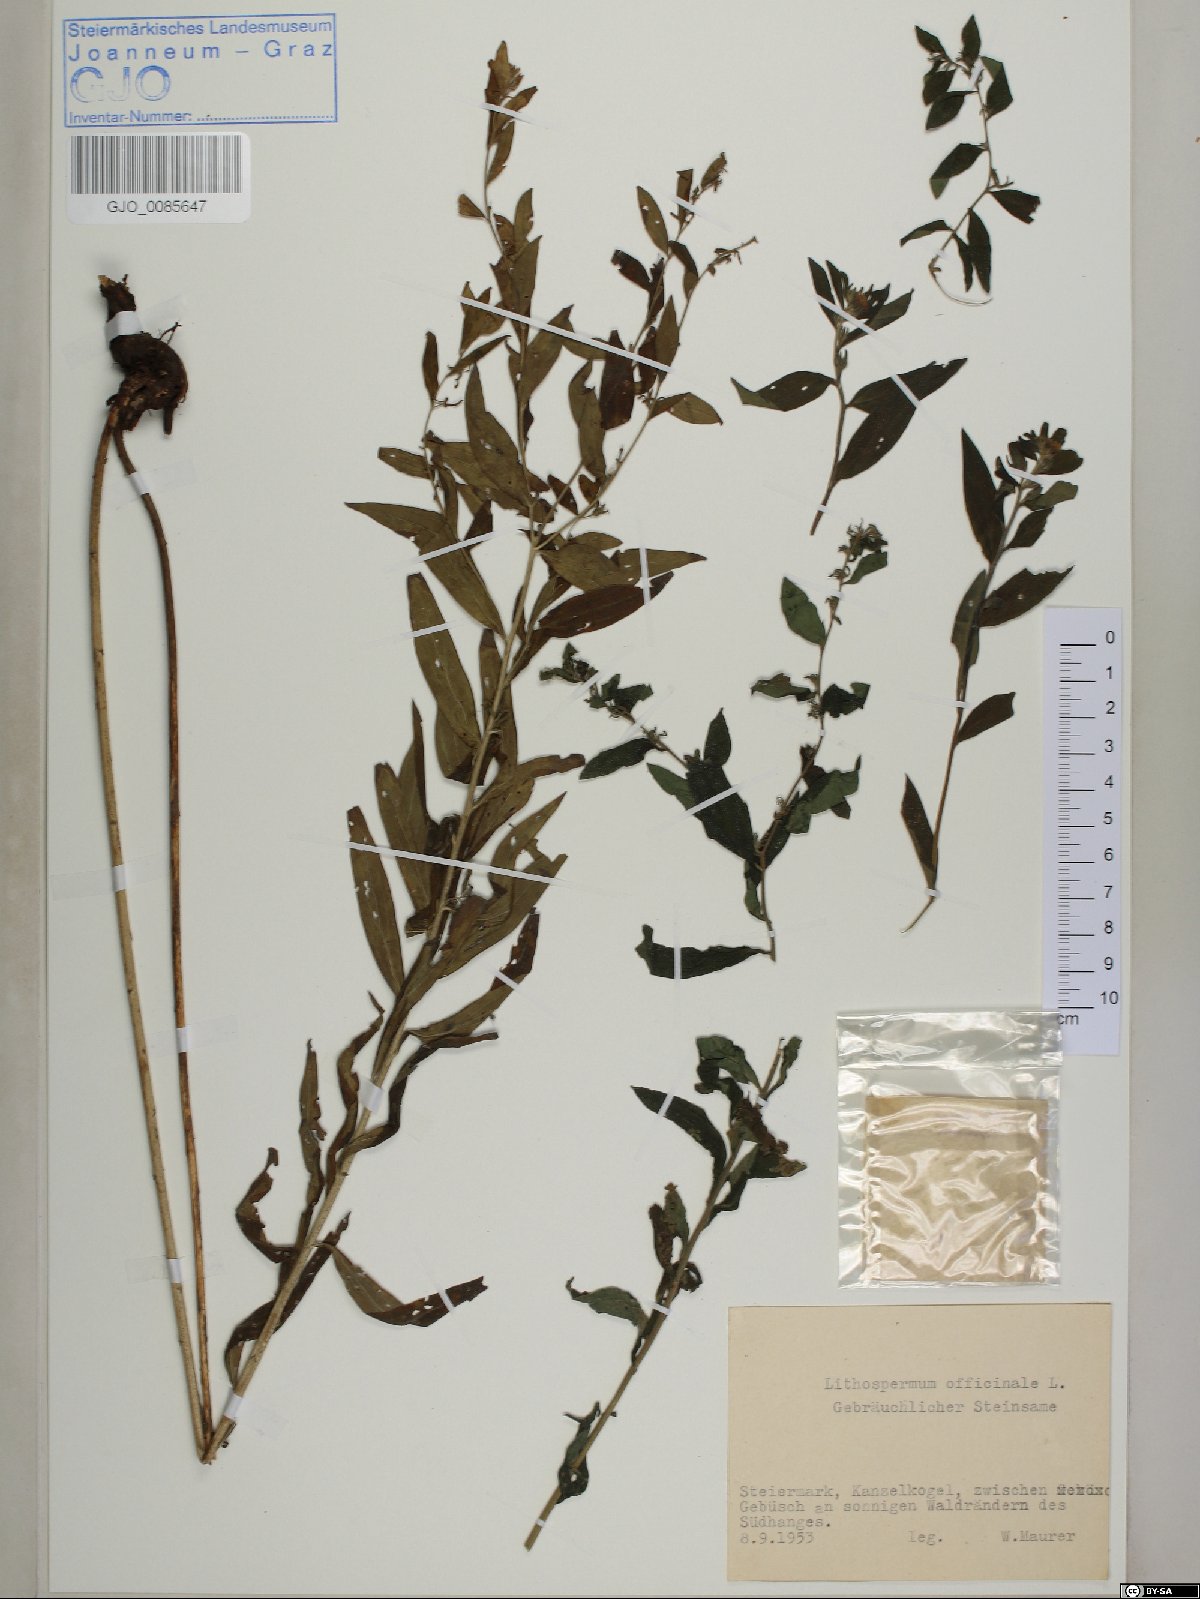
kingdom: Plantae
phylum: Tracheophyta
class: Magnoliopsida
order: Boraginales
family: Boraginaceae
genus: Lithospermum
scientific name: Lithospermum officinale
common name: Common gromwell
